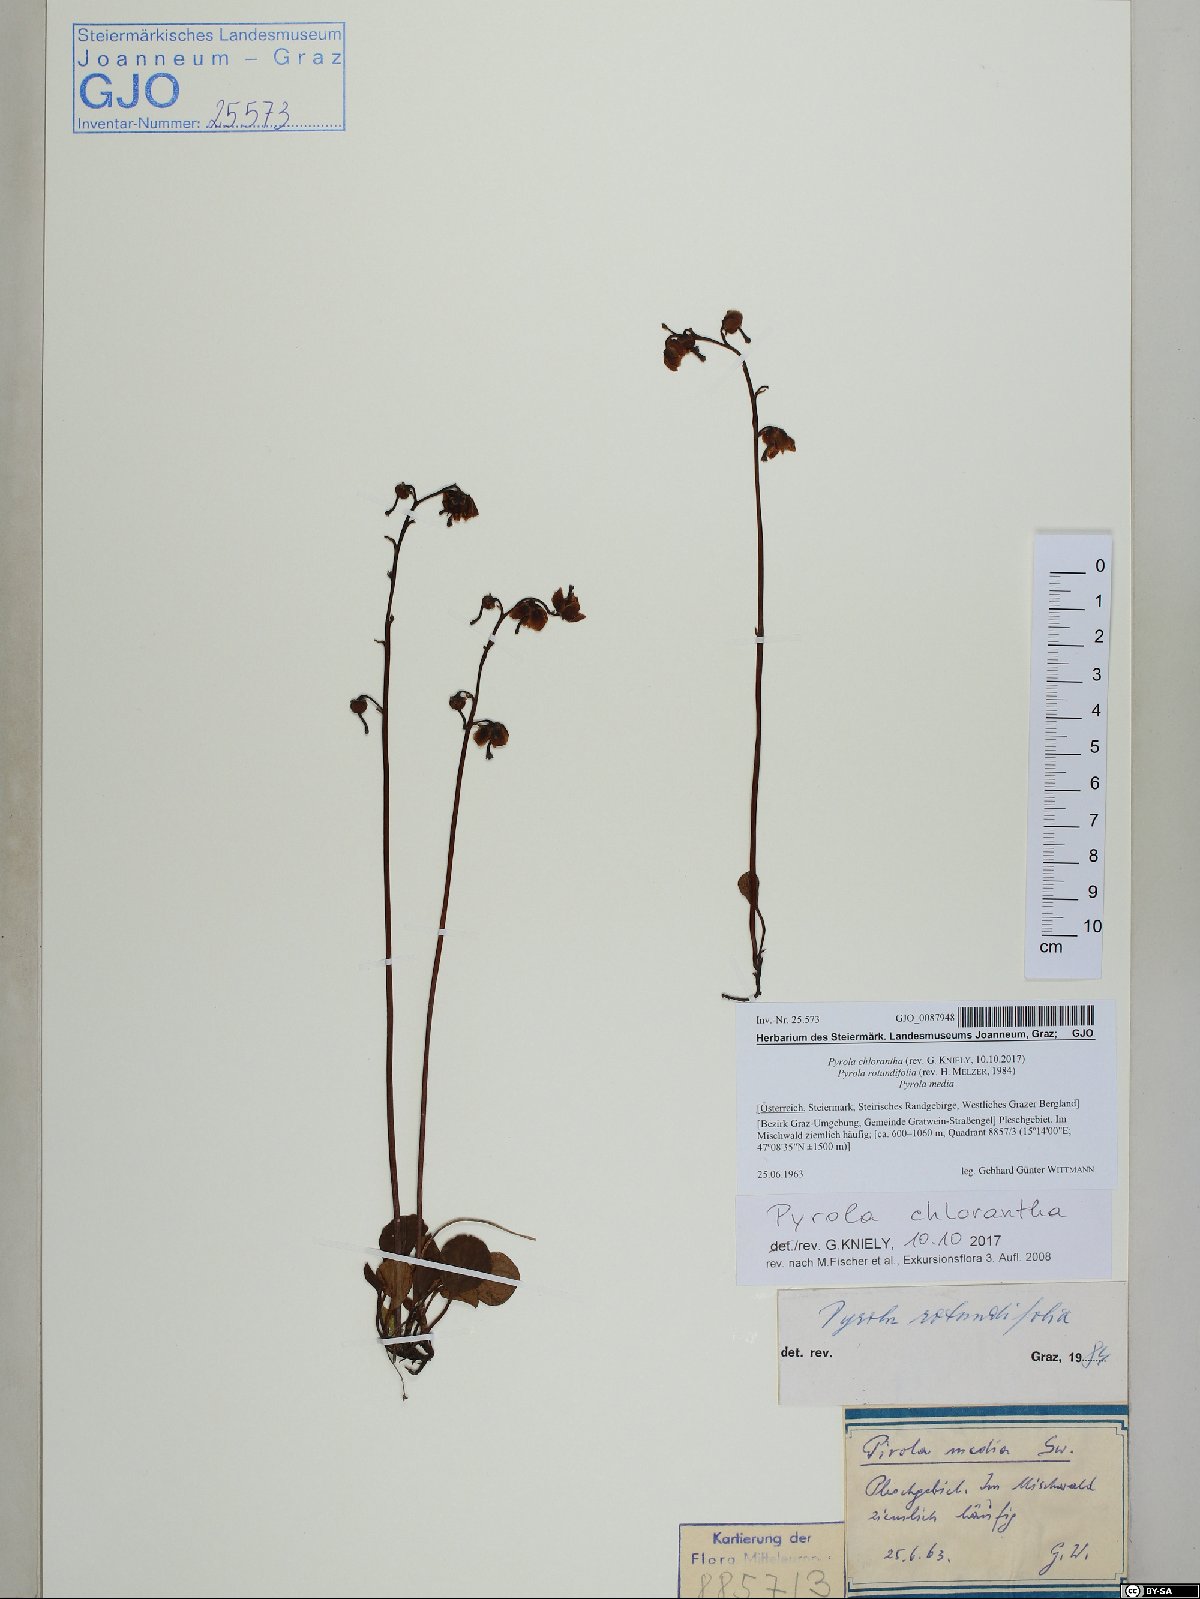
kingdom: Plantae
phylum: Tracheophyta
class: Magnoliopsida
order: Ericales
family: Ericaceae
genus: Pyrola
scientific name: Pyrola chlorantha
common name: Green wintergreen
